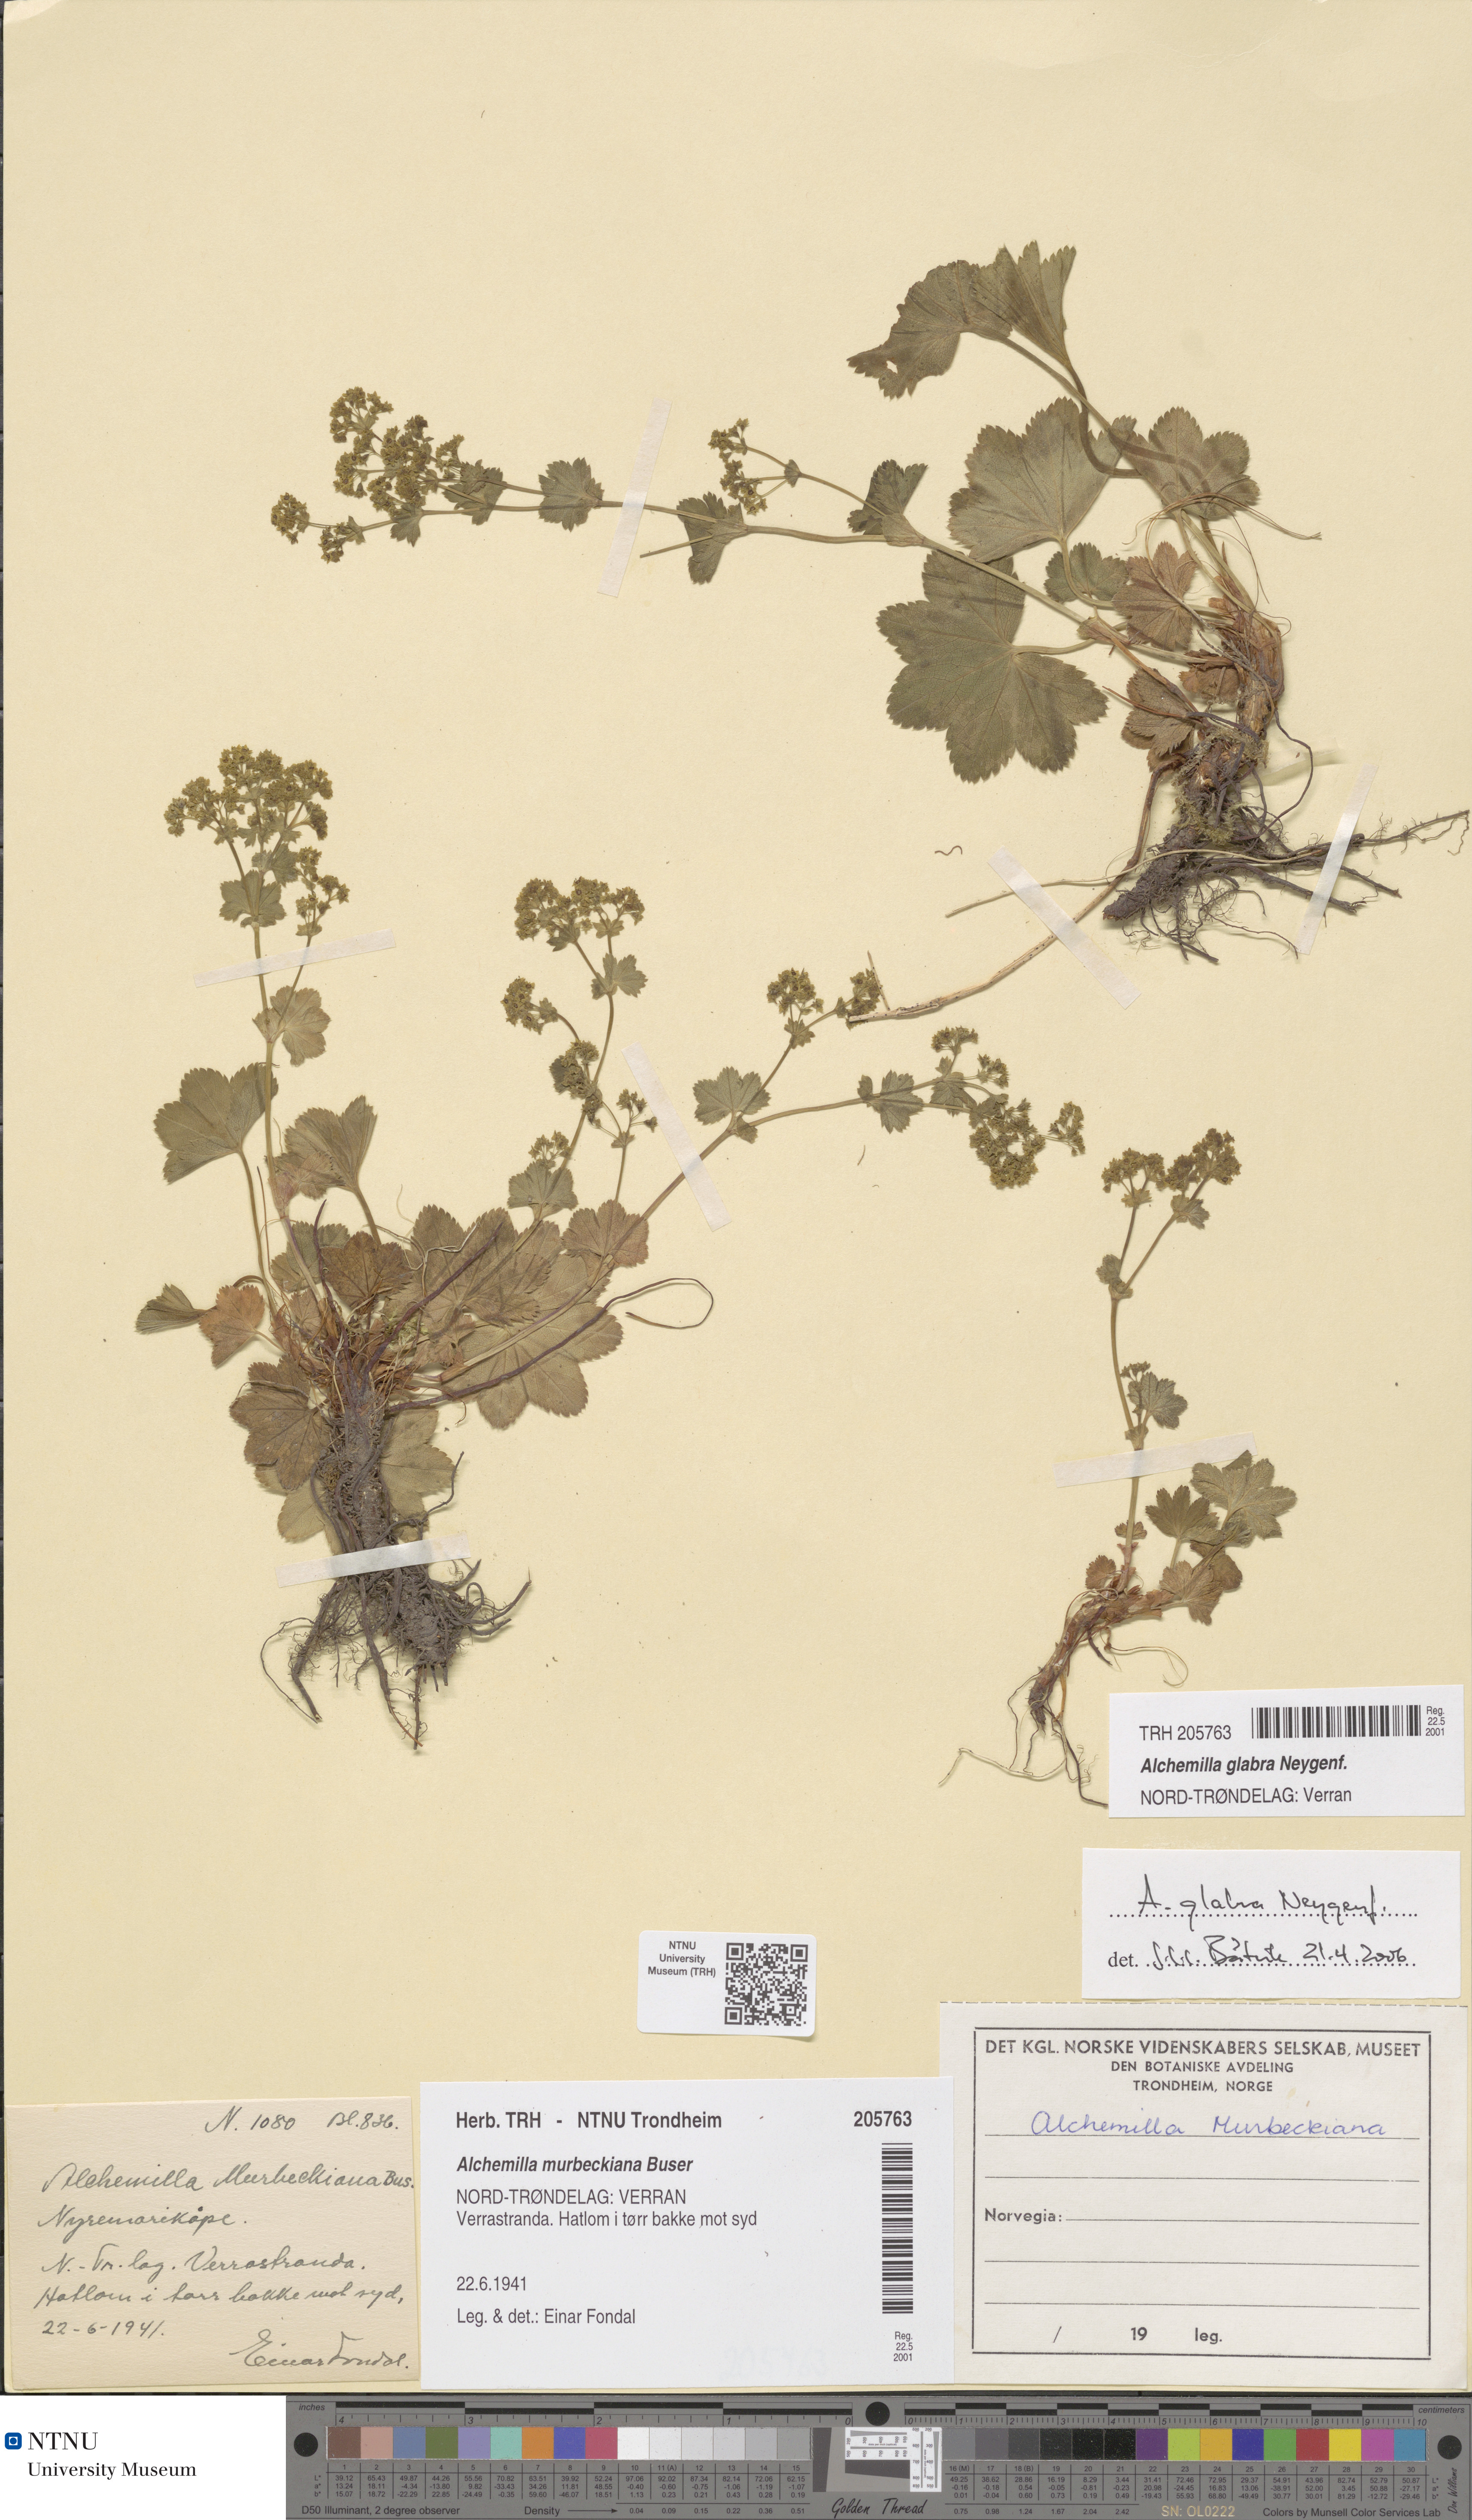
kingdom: Plantae
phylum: Tracheophyta
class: Magnoliopsida
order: Rosales
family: Rosaceae
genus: Alchemilla
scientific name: Alchemilla glabra
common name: Smooth lady's-mantle
